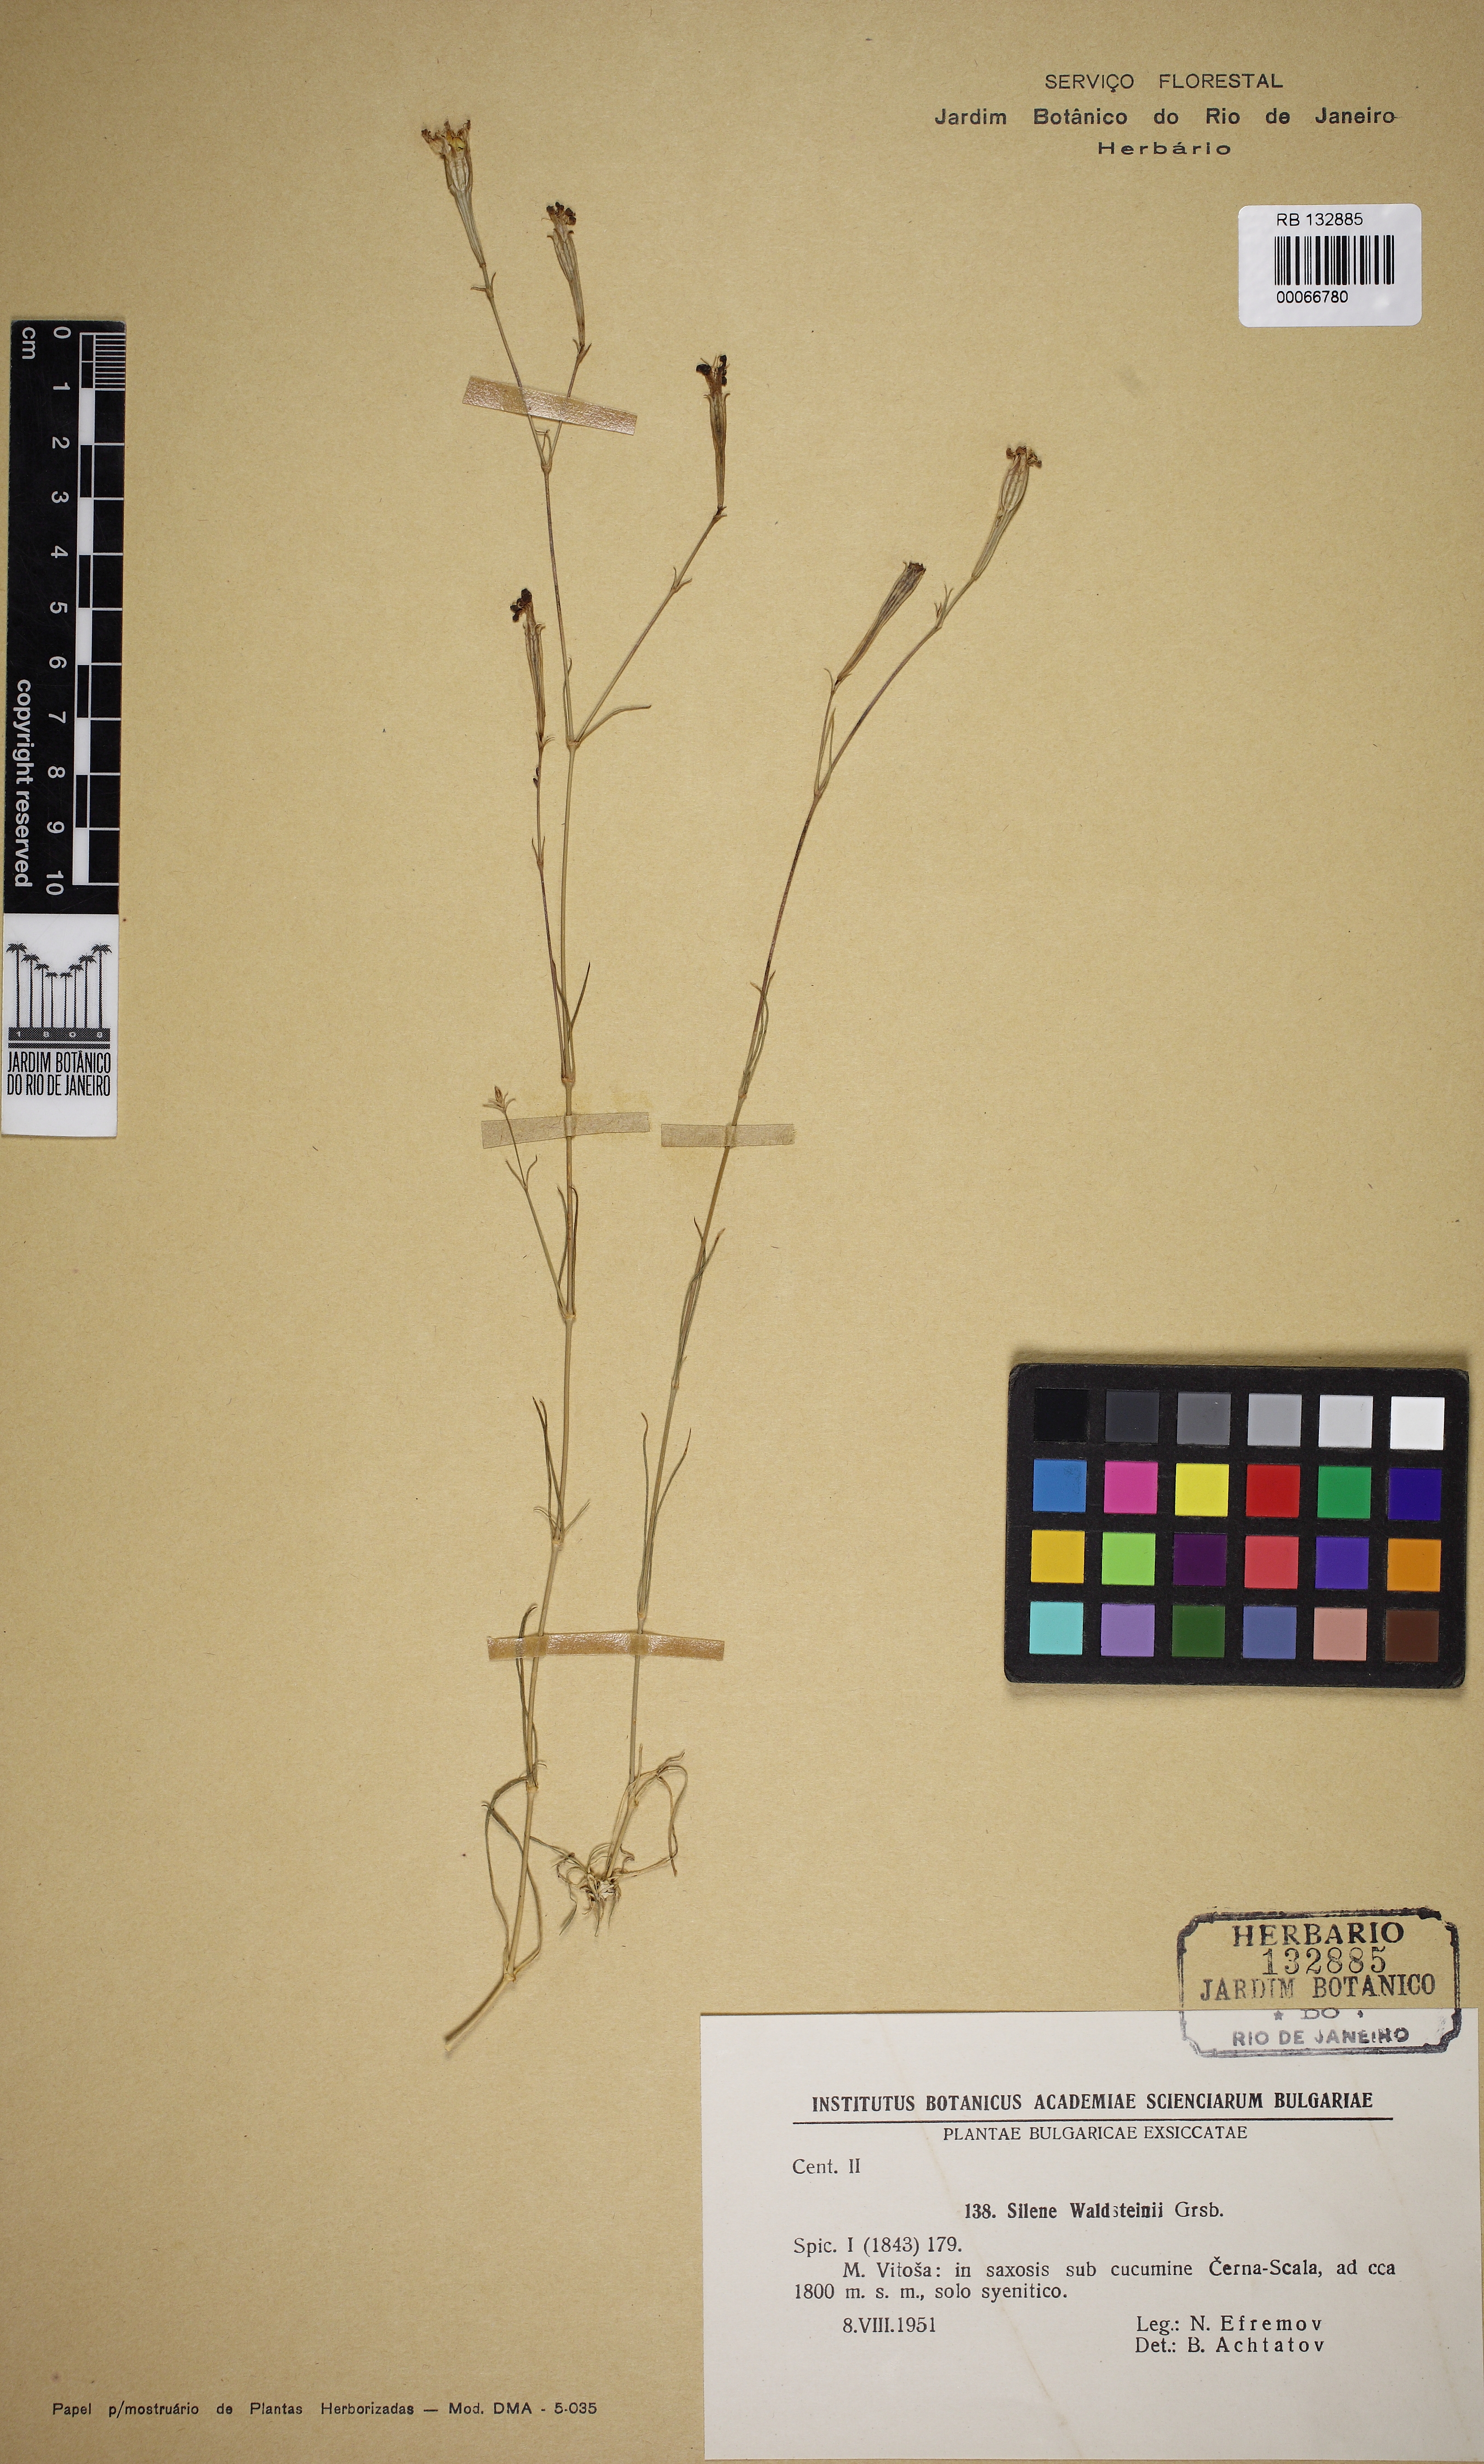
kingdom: Plantae
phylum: Tracheophyta
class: Magnoliopsida
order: Caryophyllales
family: Caryophyllaceae
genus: Silene
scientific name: Silene waldsteinii
